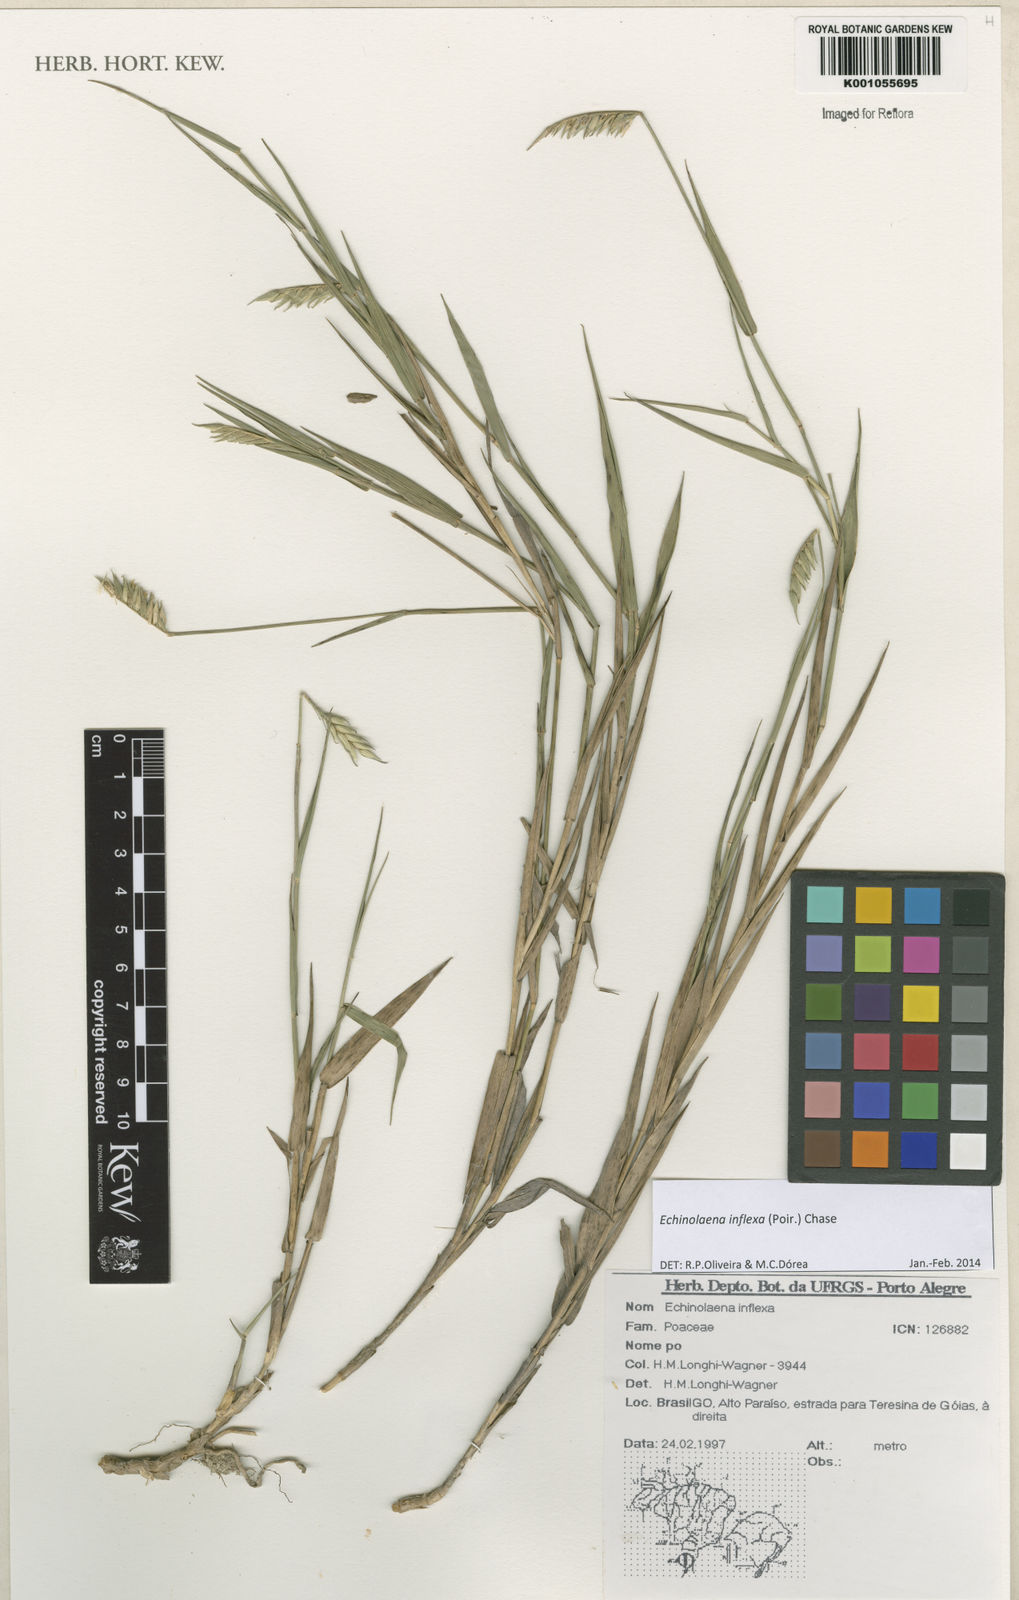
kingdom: Plantae
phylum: Tracheophyta
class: Liliopsida
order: Poales
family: Poaceae
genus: Echinolaena
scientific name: Echinolaena inflexa
